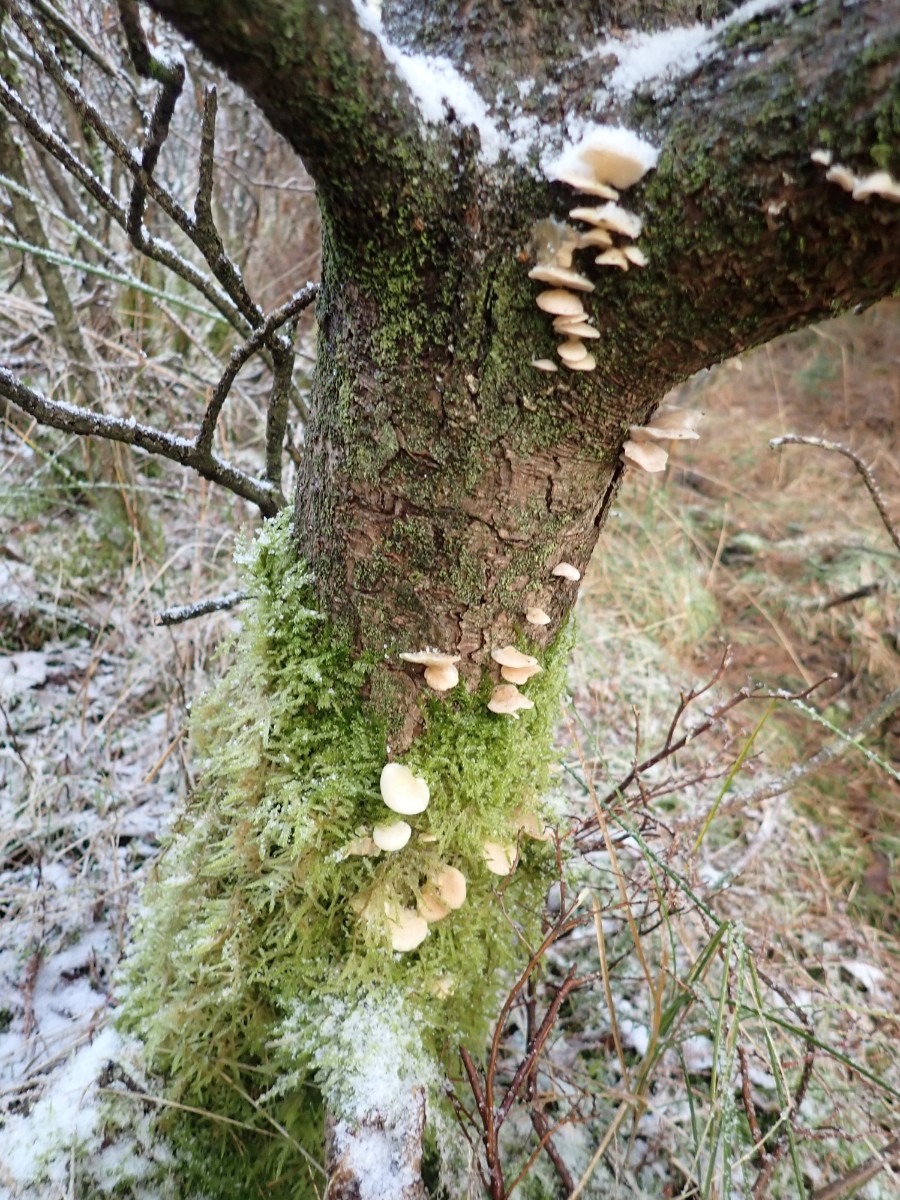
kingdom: Fungi
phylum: Basidiomycota
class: Agaricomycetes
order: Agaricales
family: Mycenaceae
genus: Panellus
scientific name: Panellus mitis
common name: mild epaulethat
